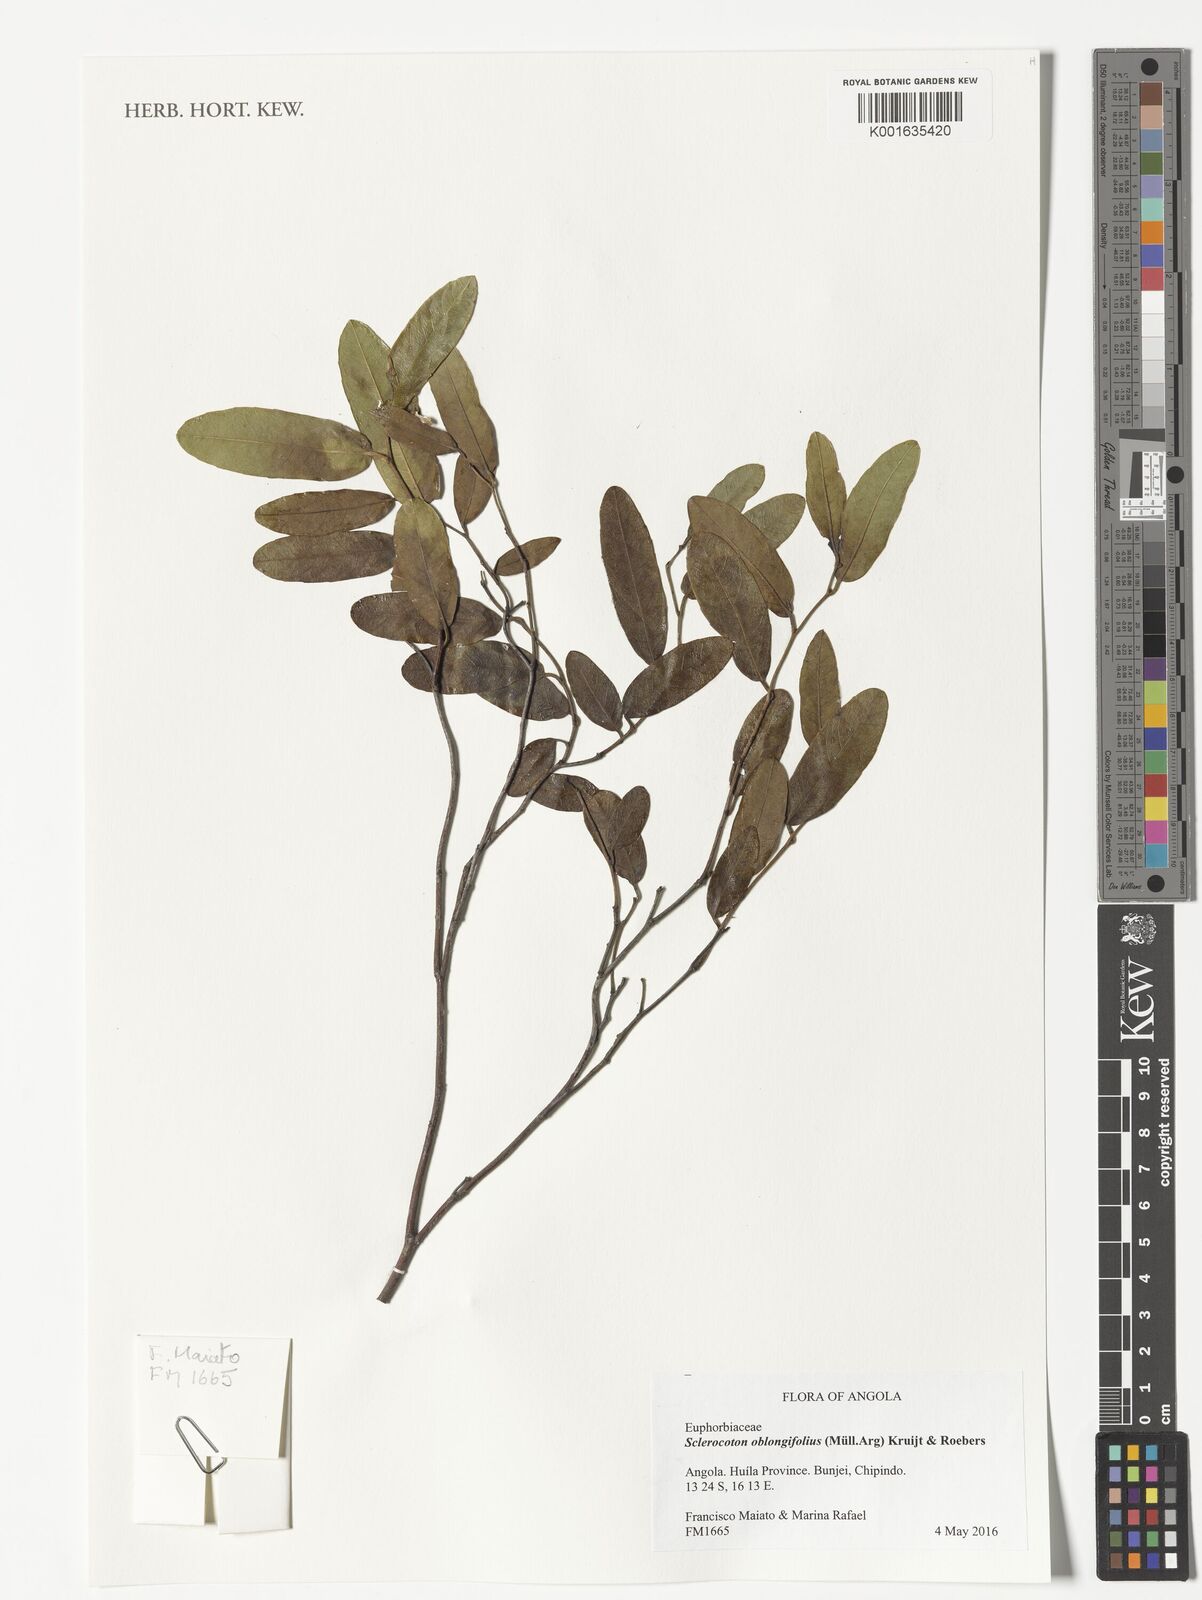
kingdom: Plantae
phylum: Tracheophyta
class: Magnoliopsida
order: Malpighiales
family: Euphorbiaceae
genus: Sclerocroton
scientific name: Sclerocroton oblongifolius
